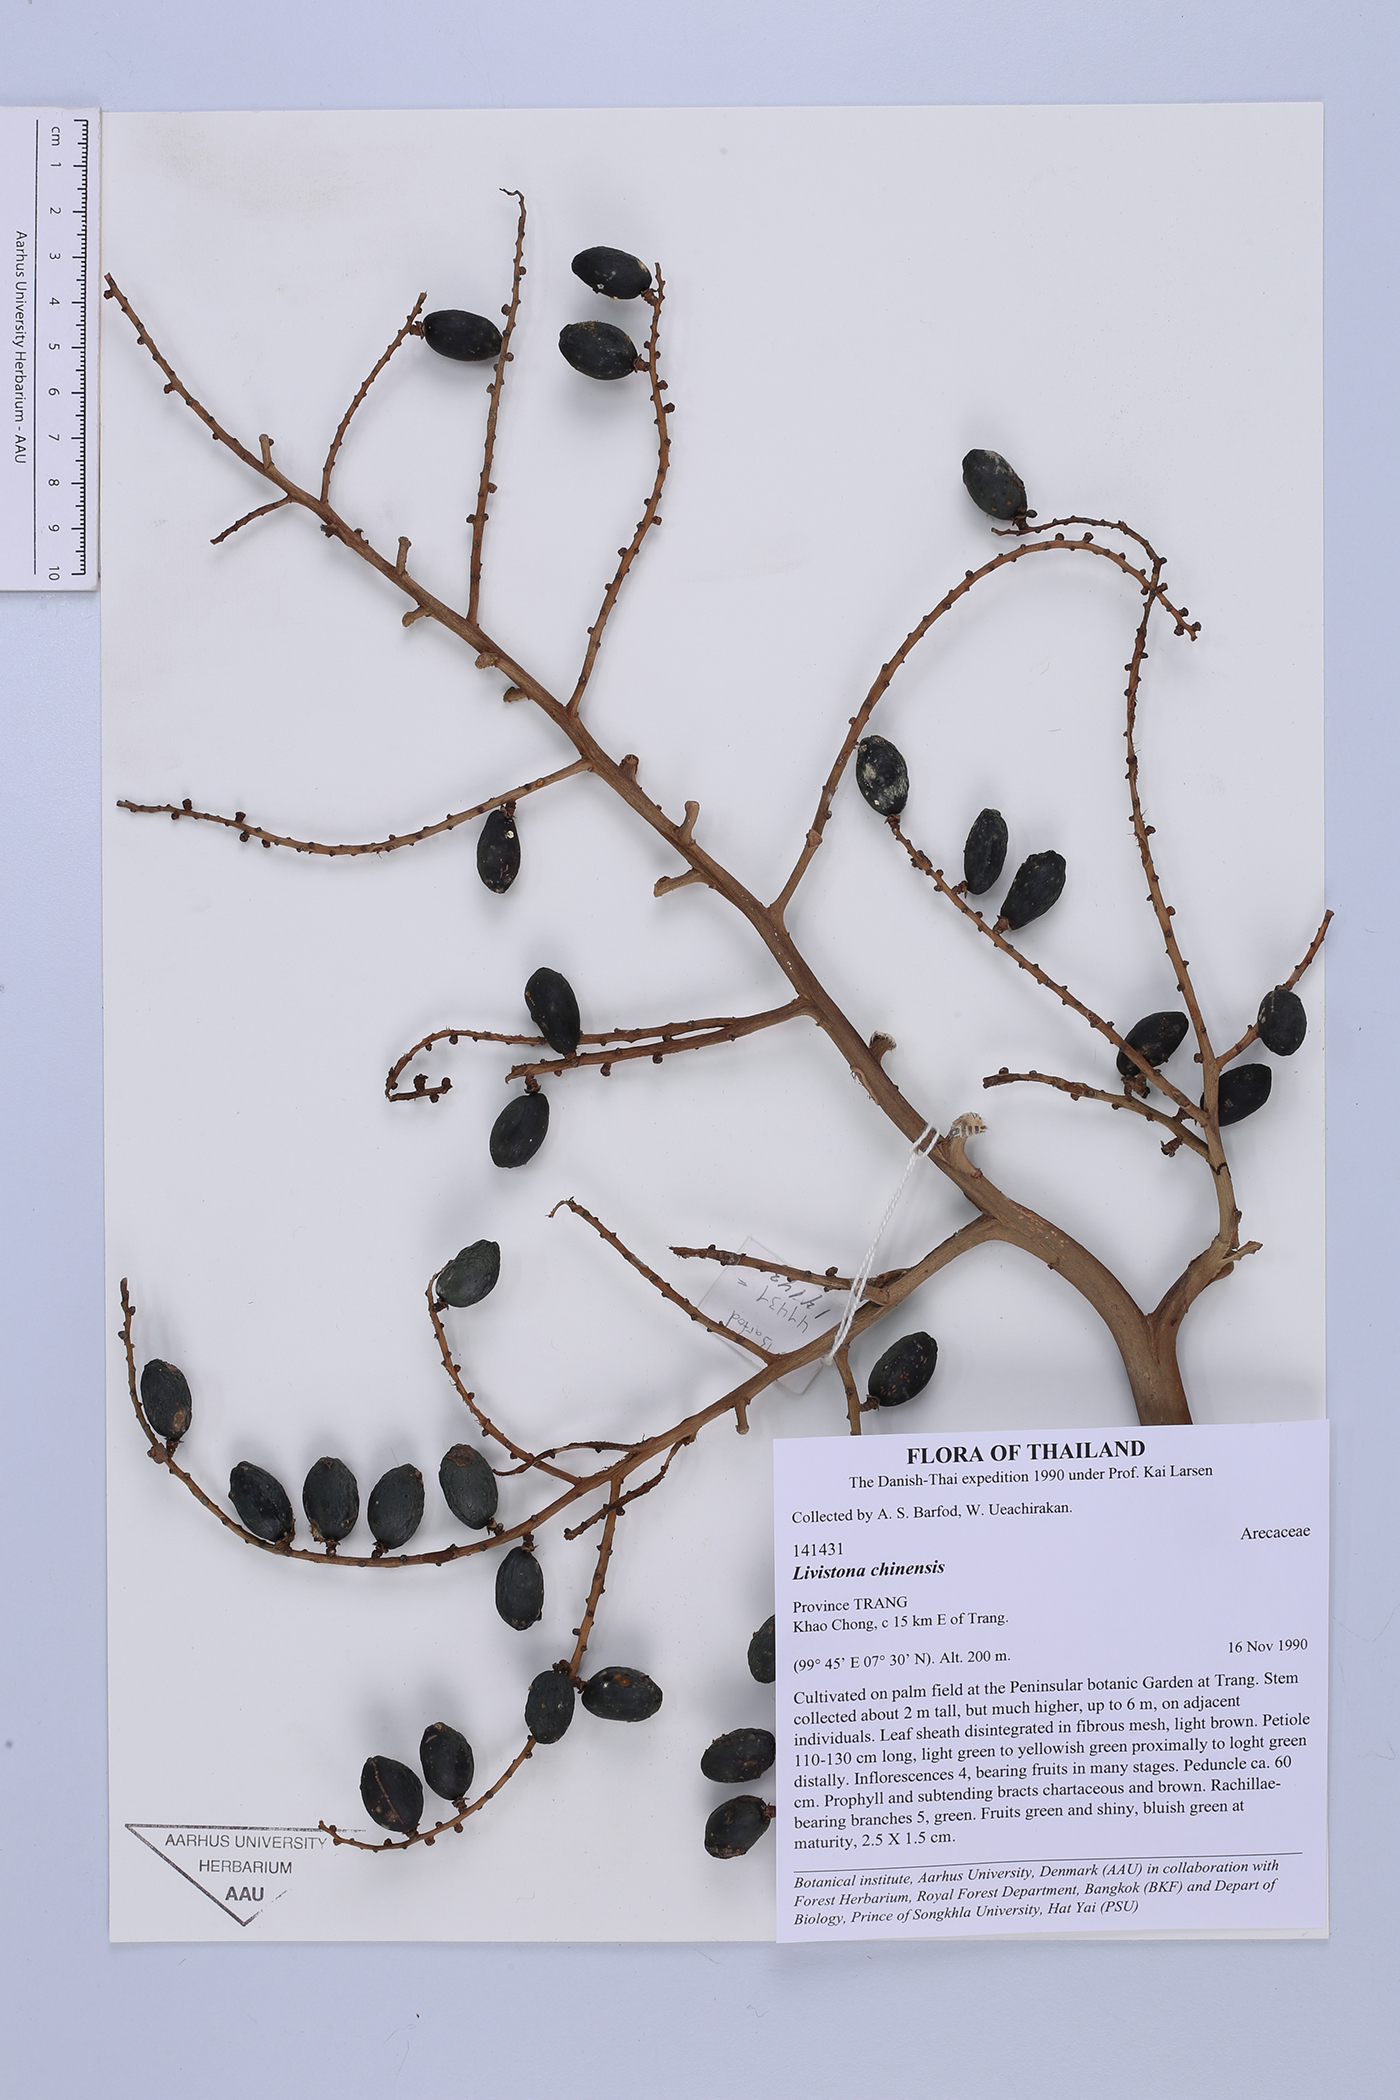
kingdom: Plantae
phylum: Tracheophyta
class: Liliopsida
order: Arecales
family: Arecaceae
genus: Livistona
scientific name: Livistona chinensis
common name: Fountain palm
